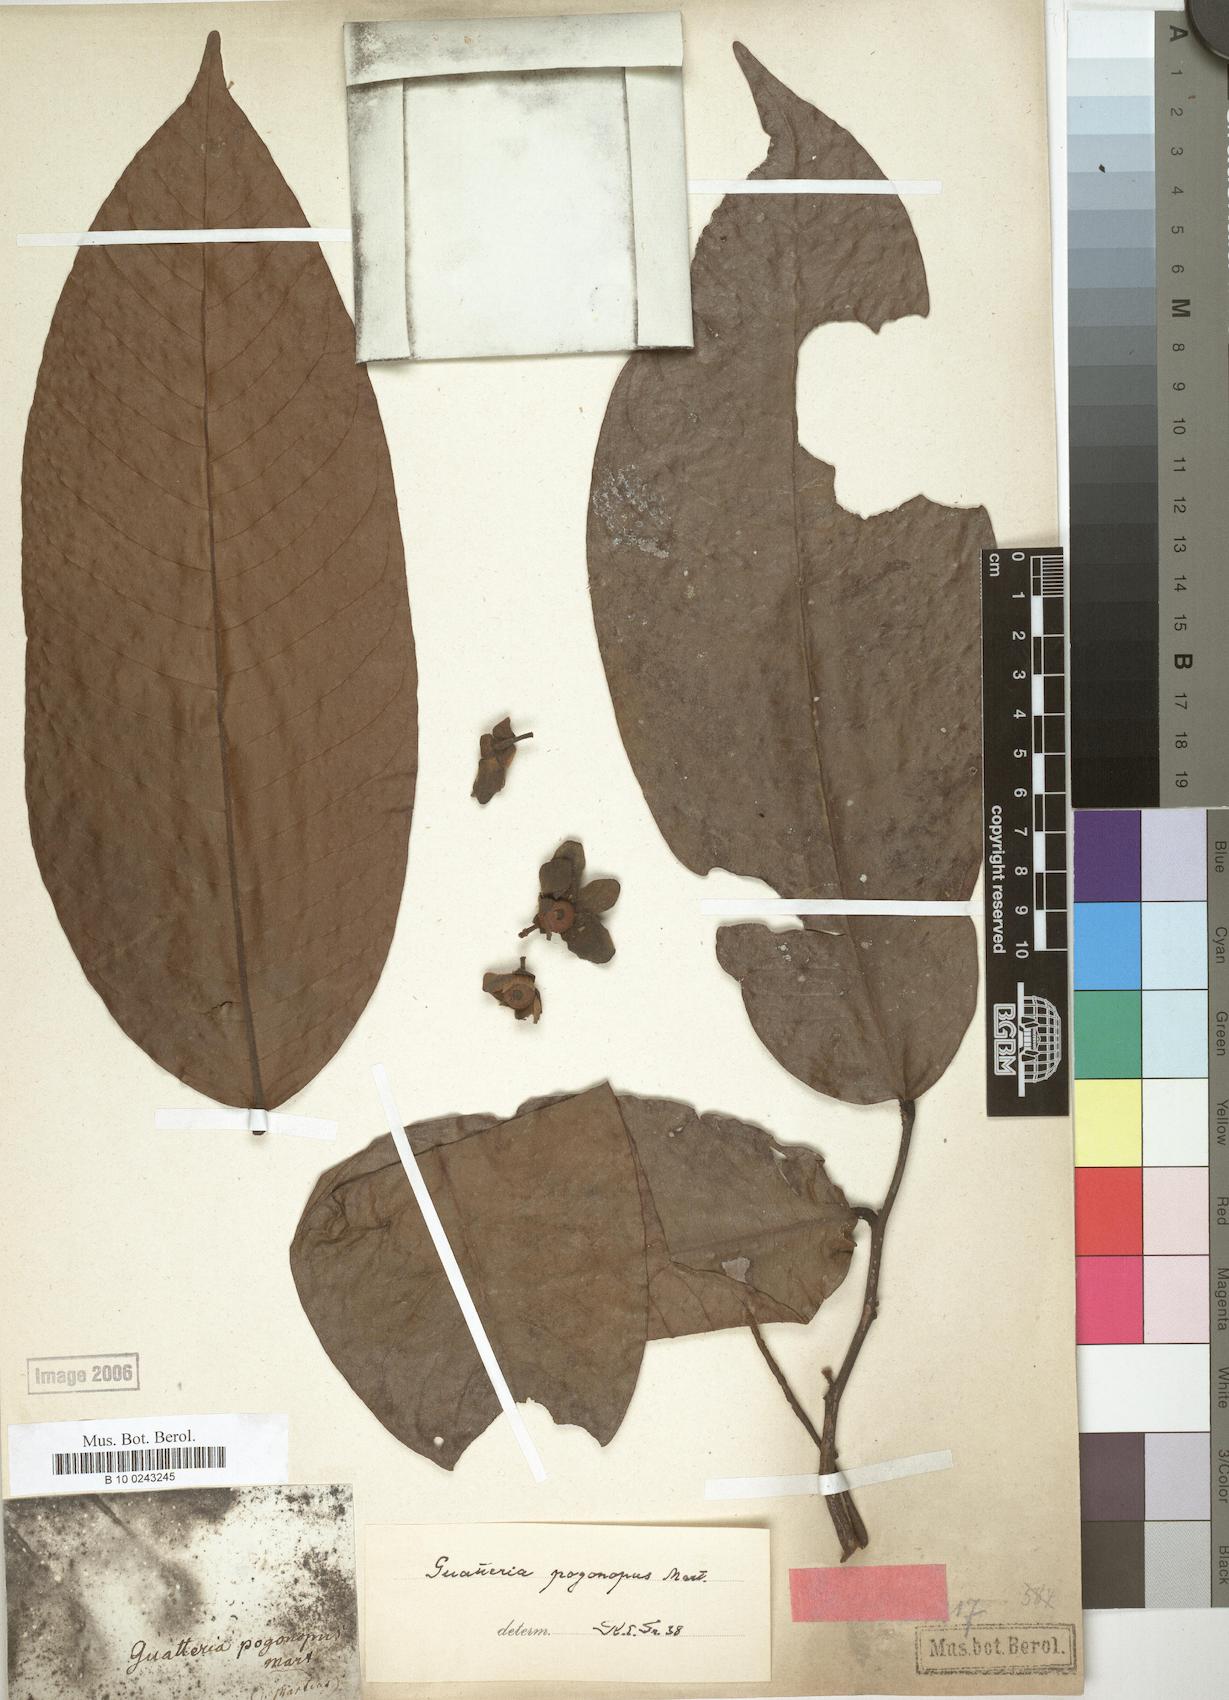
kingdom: Plantae
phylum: Tracheophyta
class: Magnoliopsida
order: Magnoliales
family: Annonaceae
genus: Guatteria
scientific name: Guatteria pogonopus
